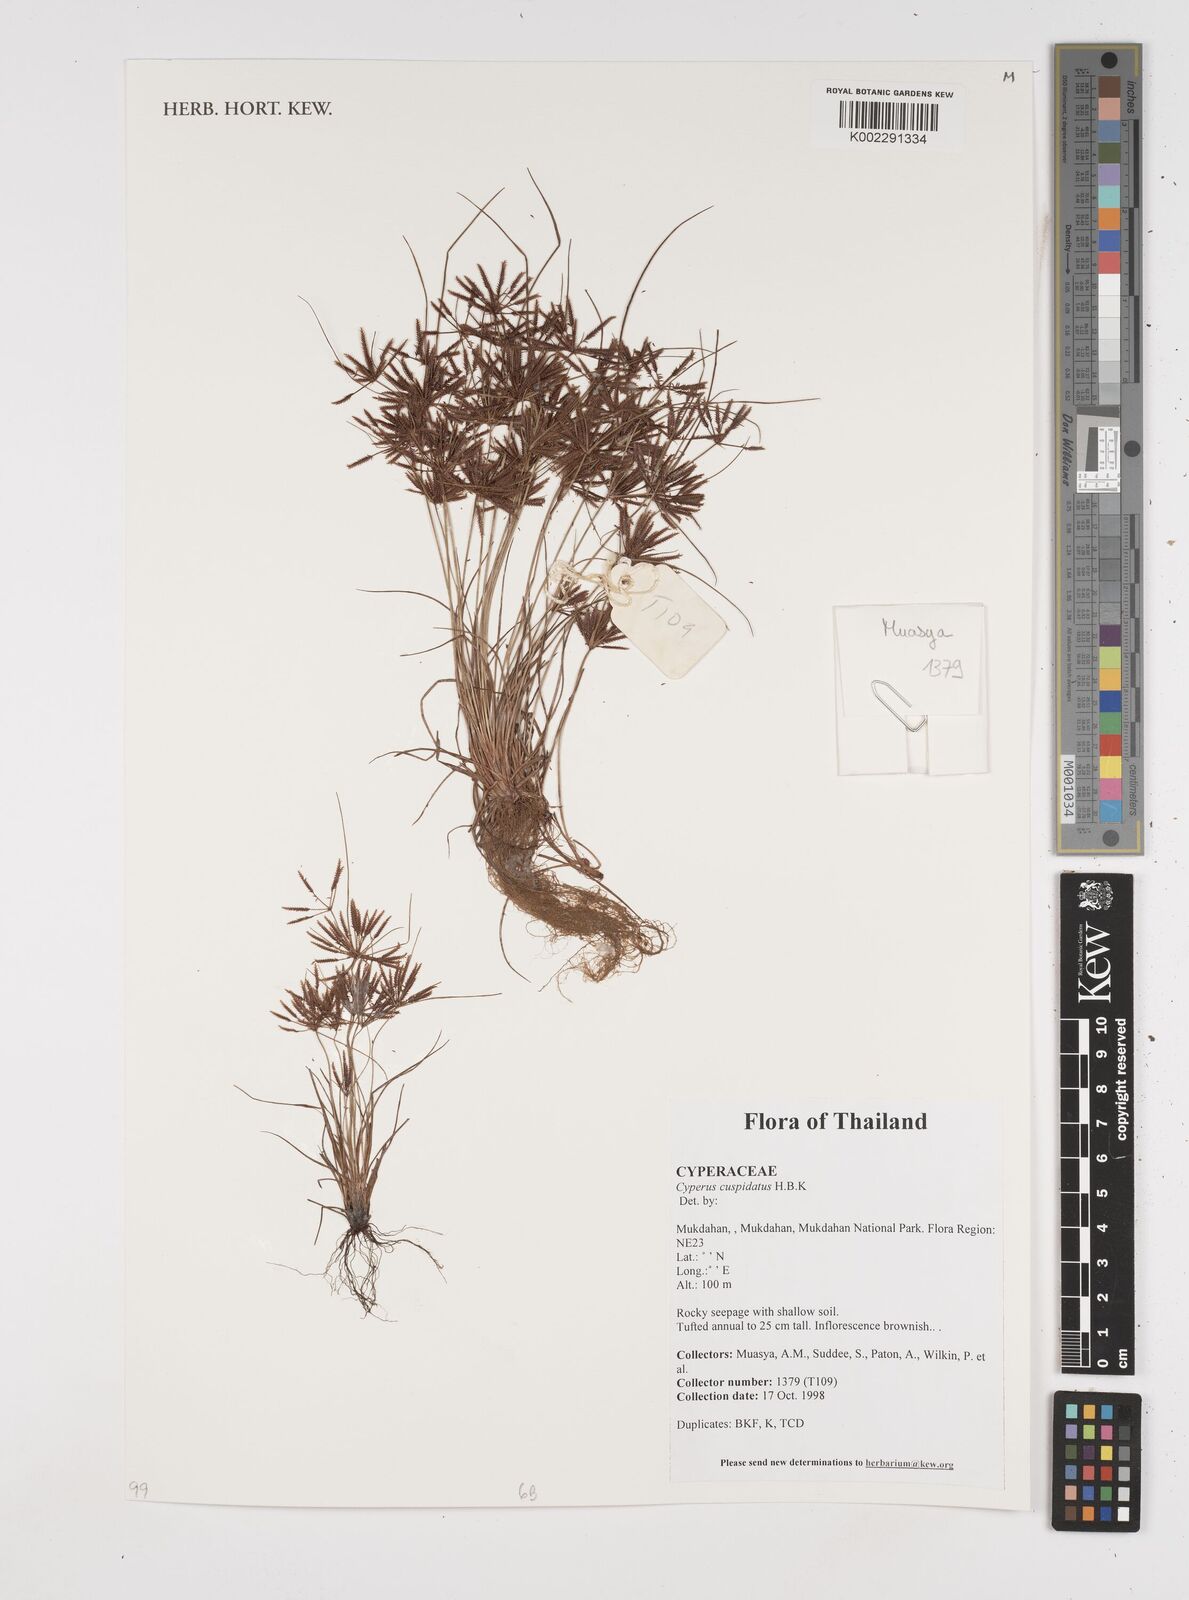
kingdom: Plantae
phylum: Tracheophyta
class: Liliopsida
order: Poales
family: Cyperaceae
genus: Cyperus
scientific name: Cyperus cuspidatus
